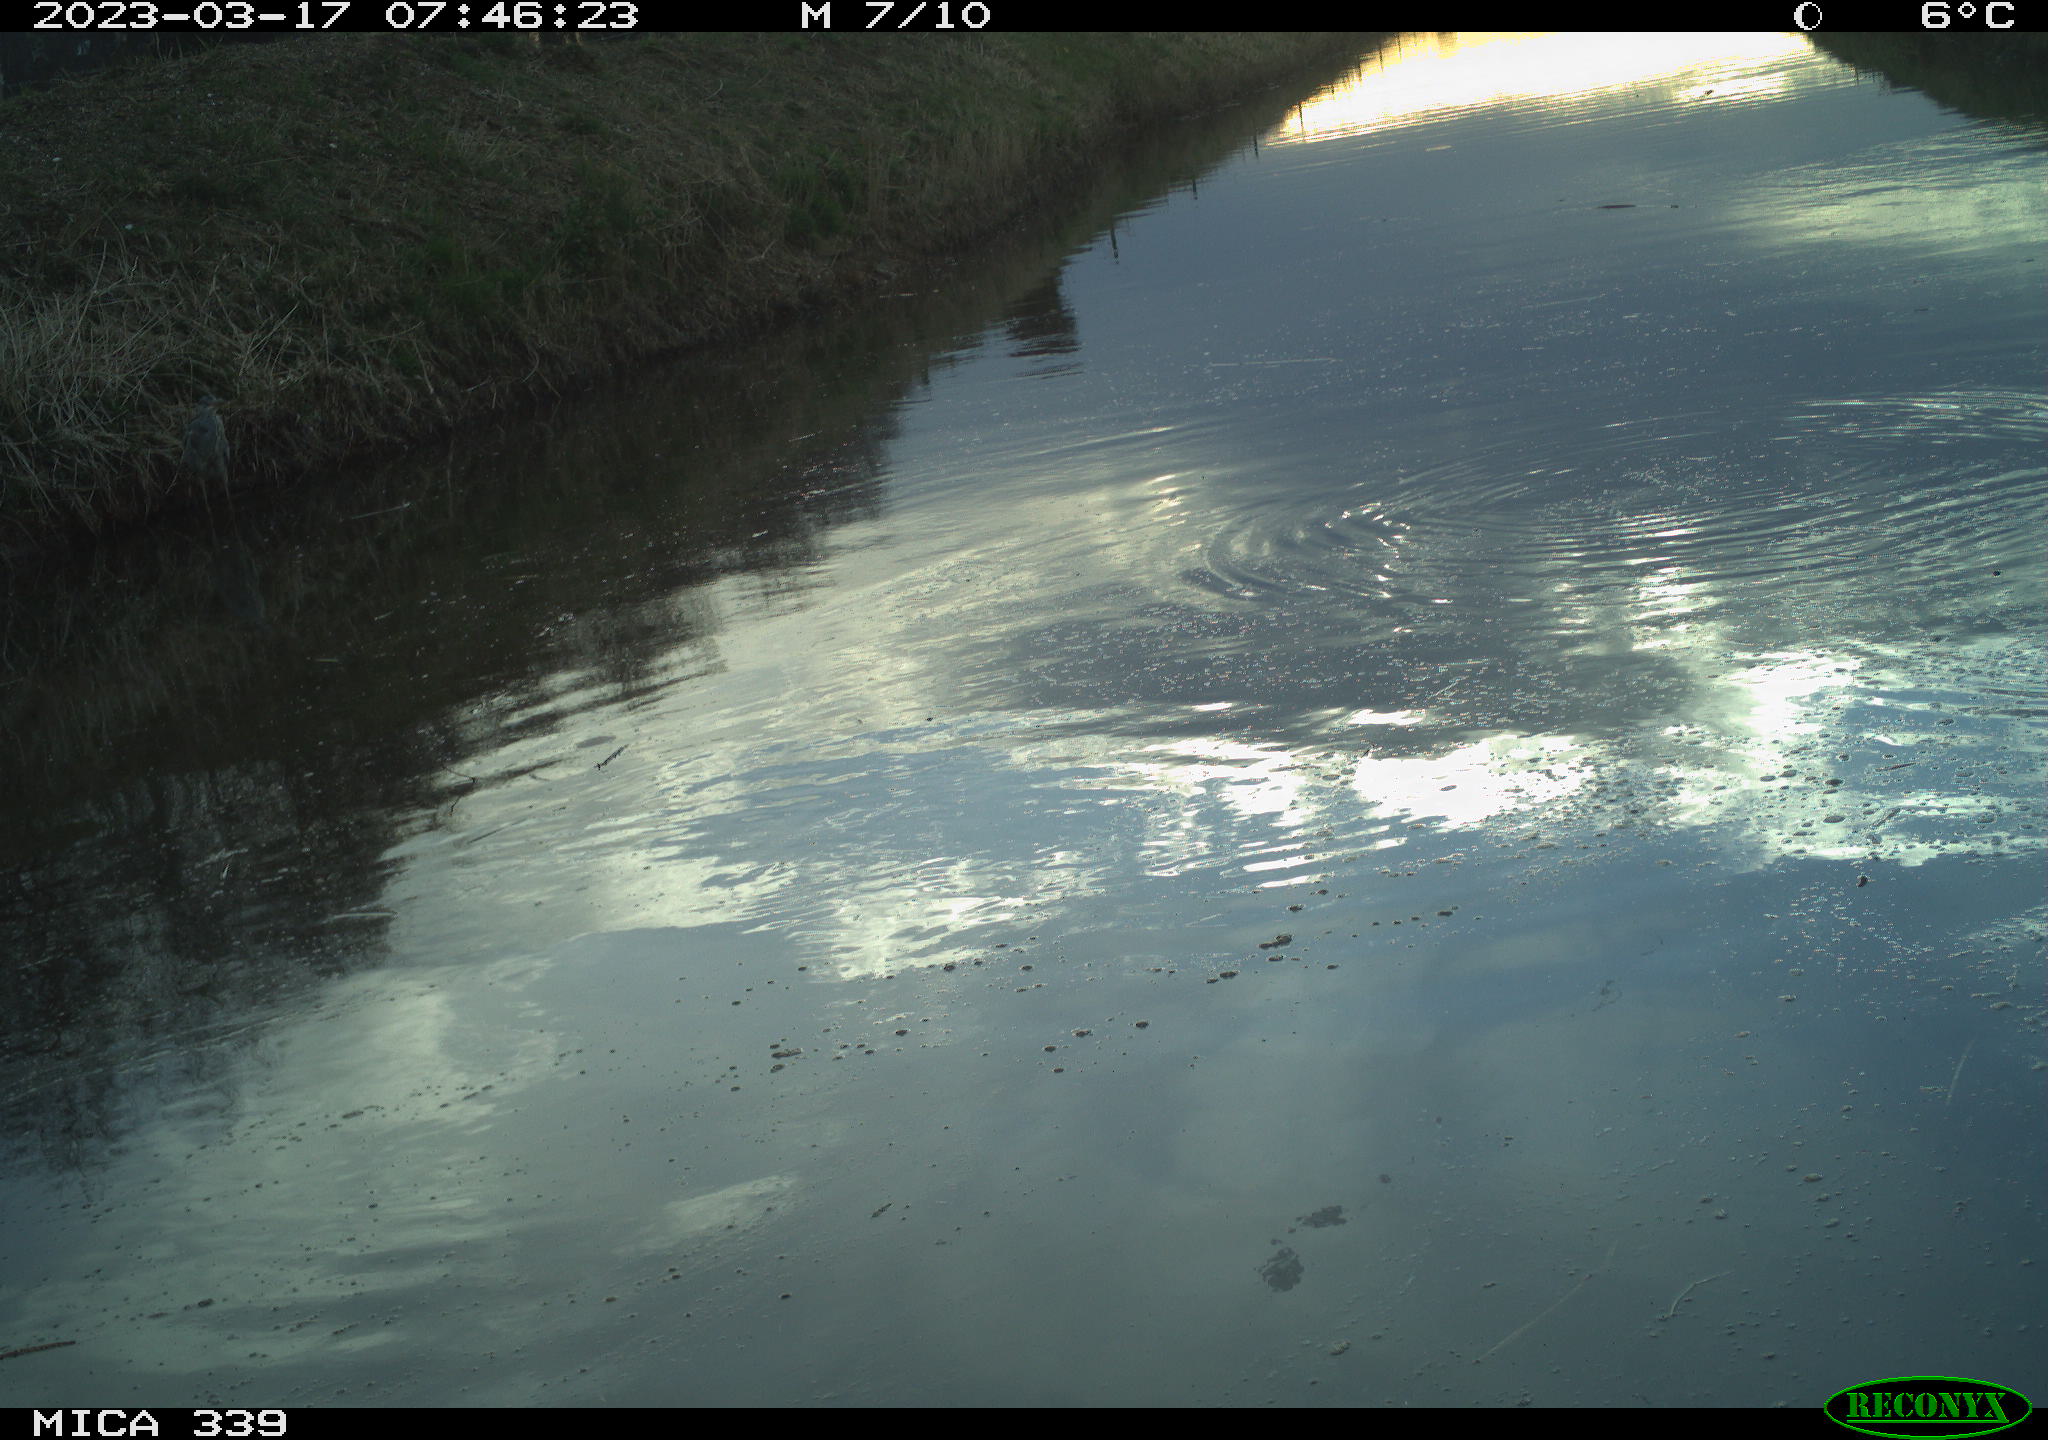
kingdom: Animalia
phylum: Chordata
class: Aves
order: Pelecaniformes
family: Ardeidae
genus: Ardea
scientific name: Ardea cinerea
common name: Grey heron
